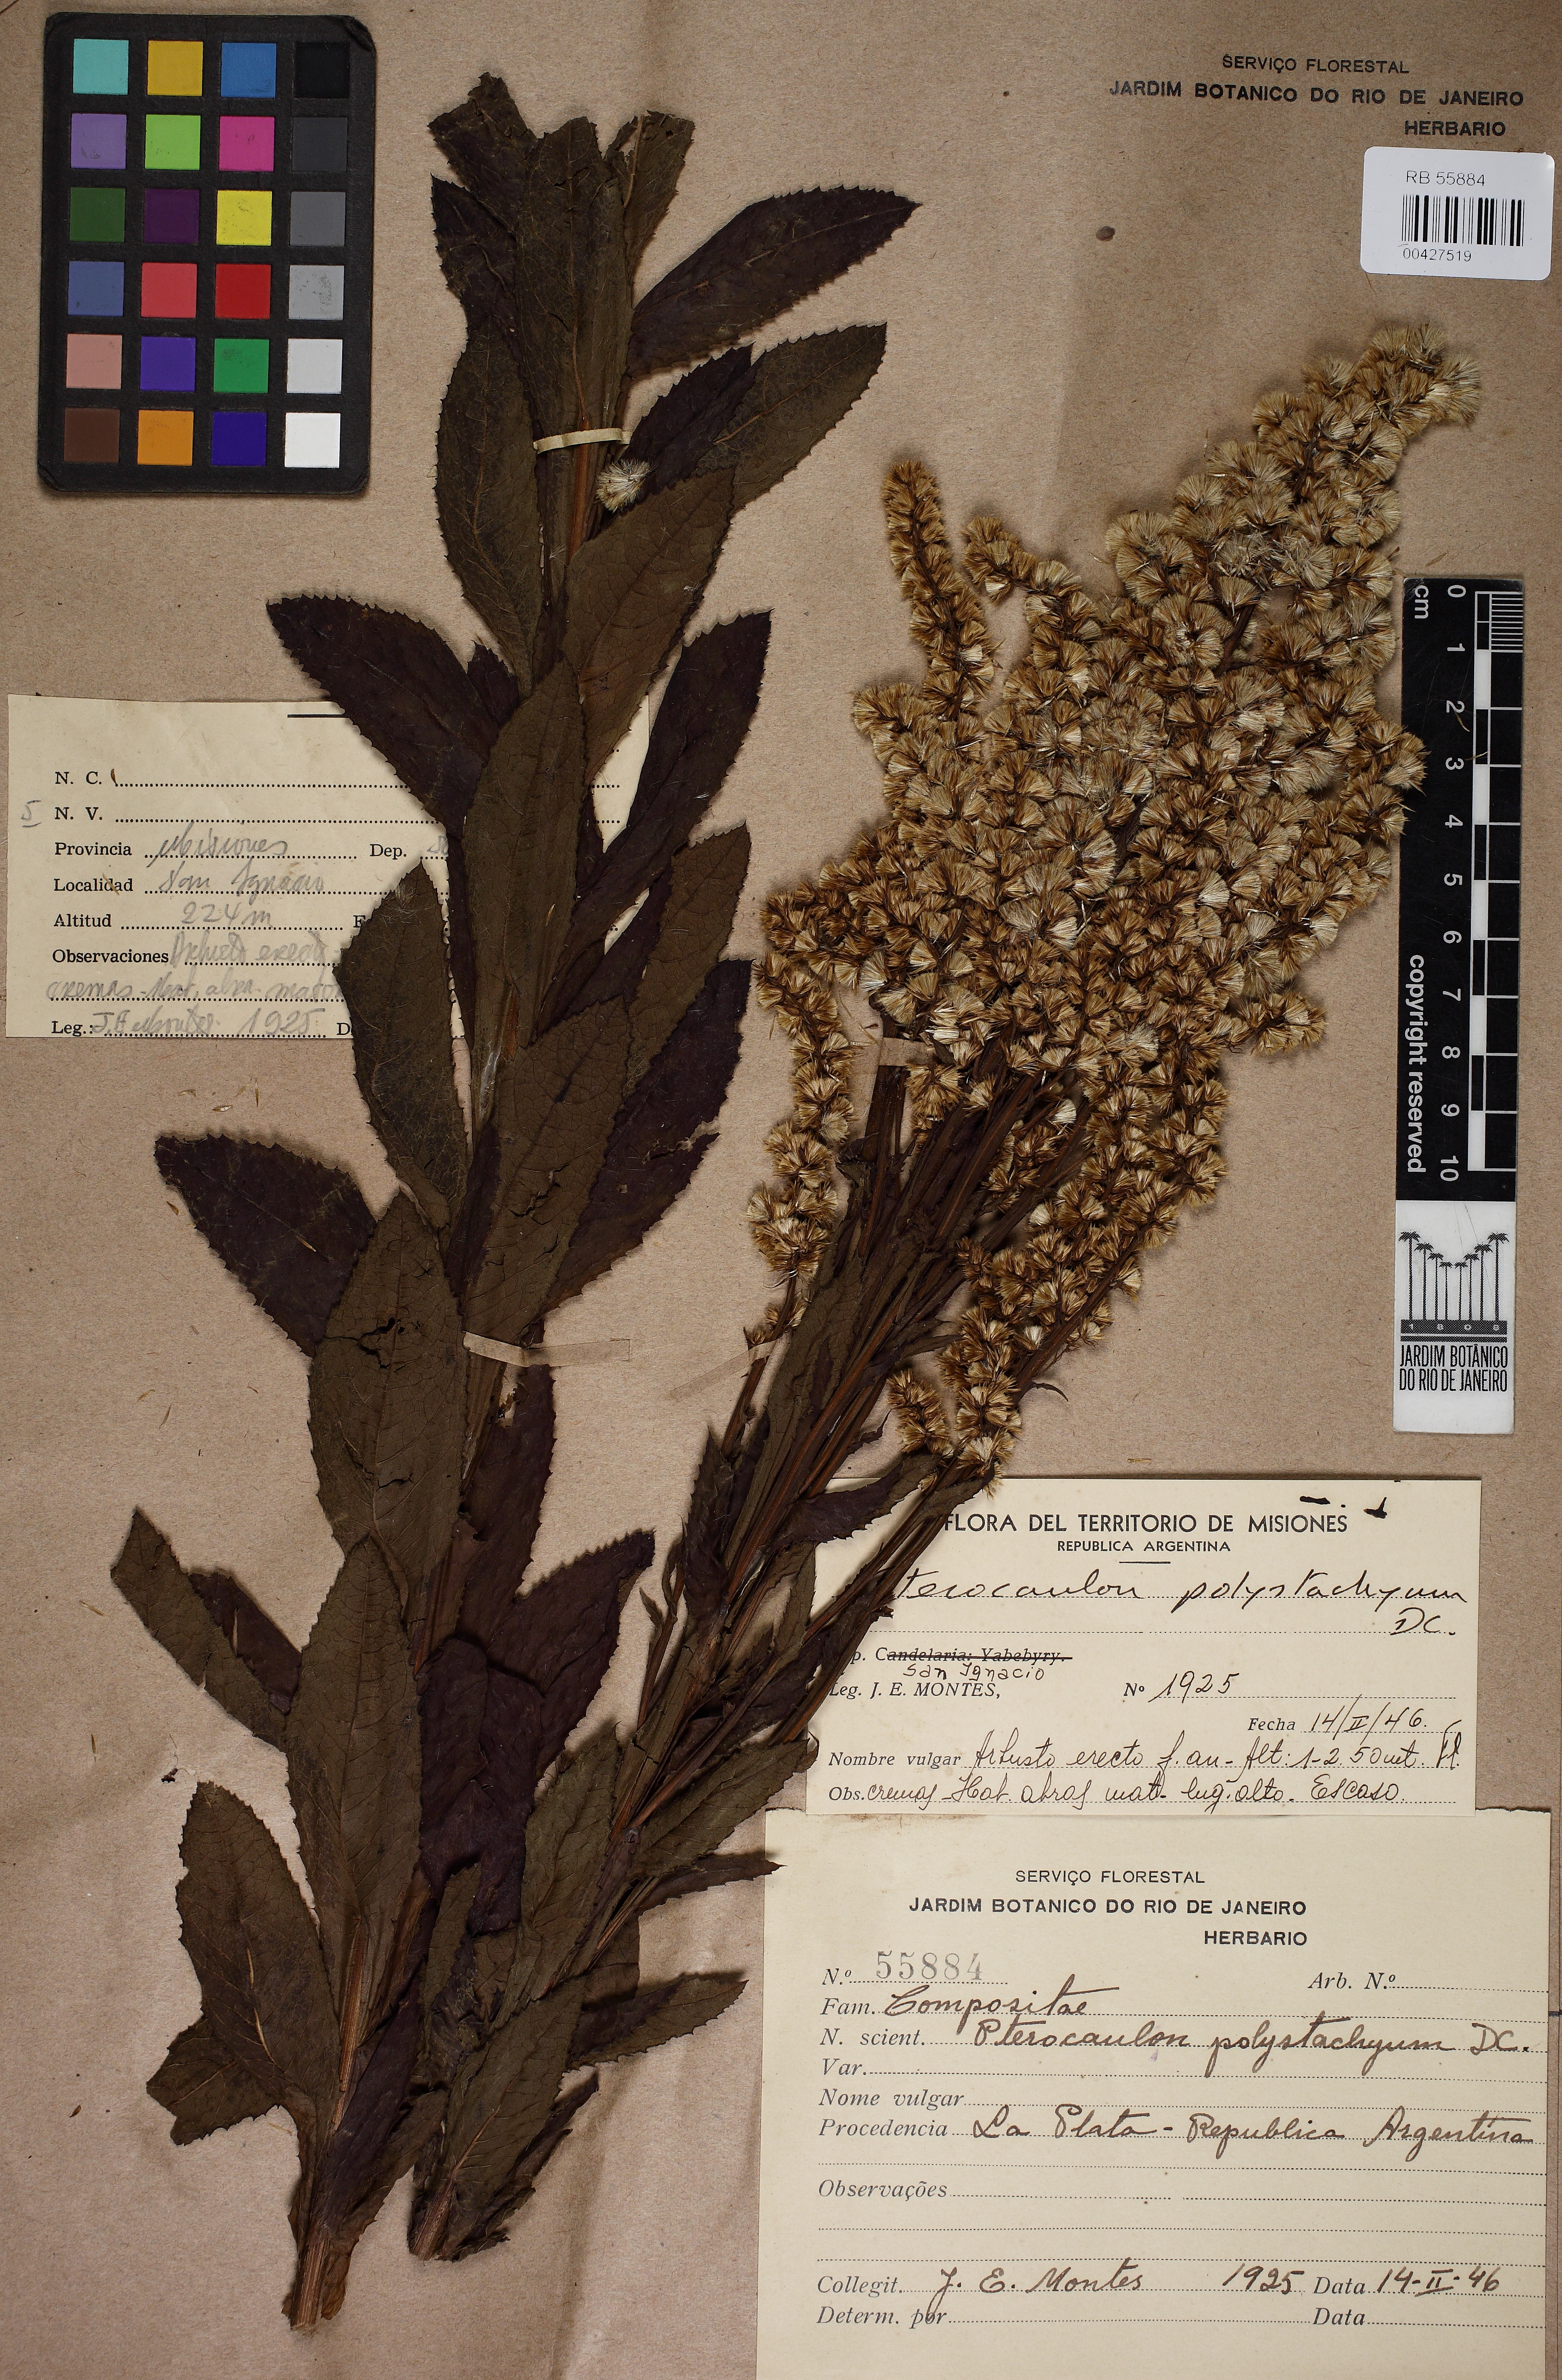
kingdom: Plantae
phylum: Tracheophyta
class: Magnoliopsida
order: Asterales
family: Asteraceae
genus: Pterocaulon
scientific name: Pterocaulon polystachyum
